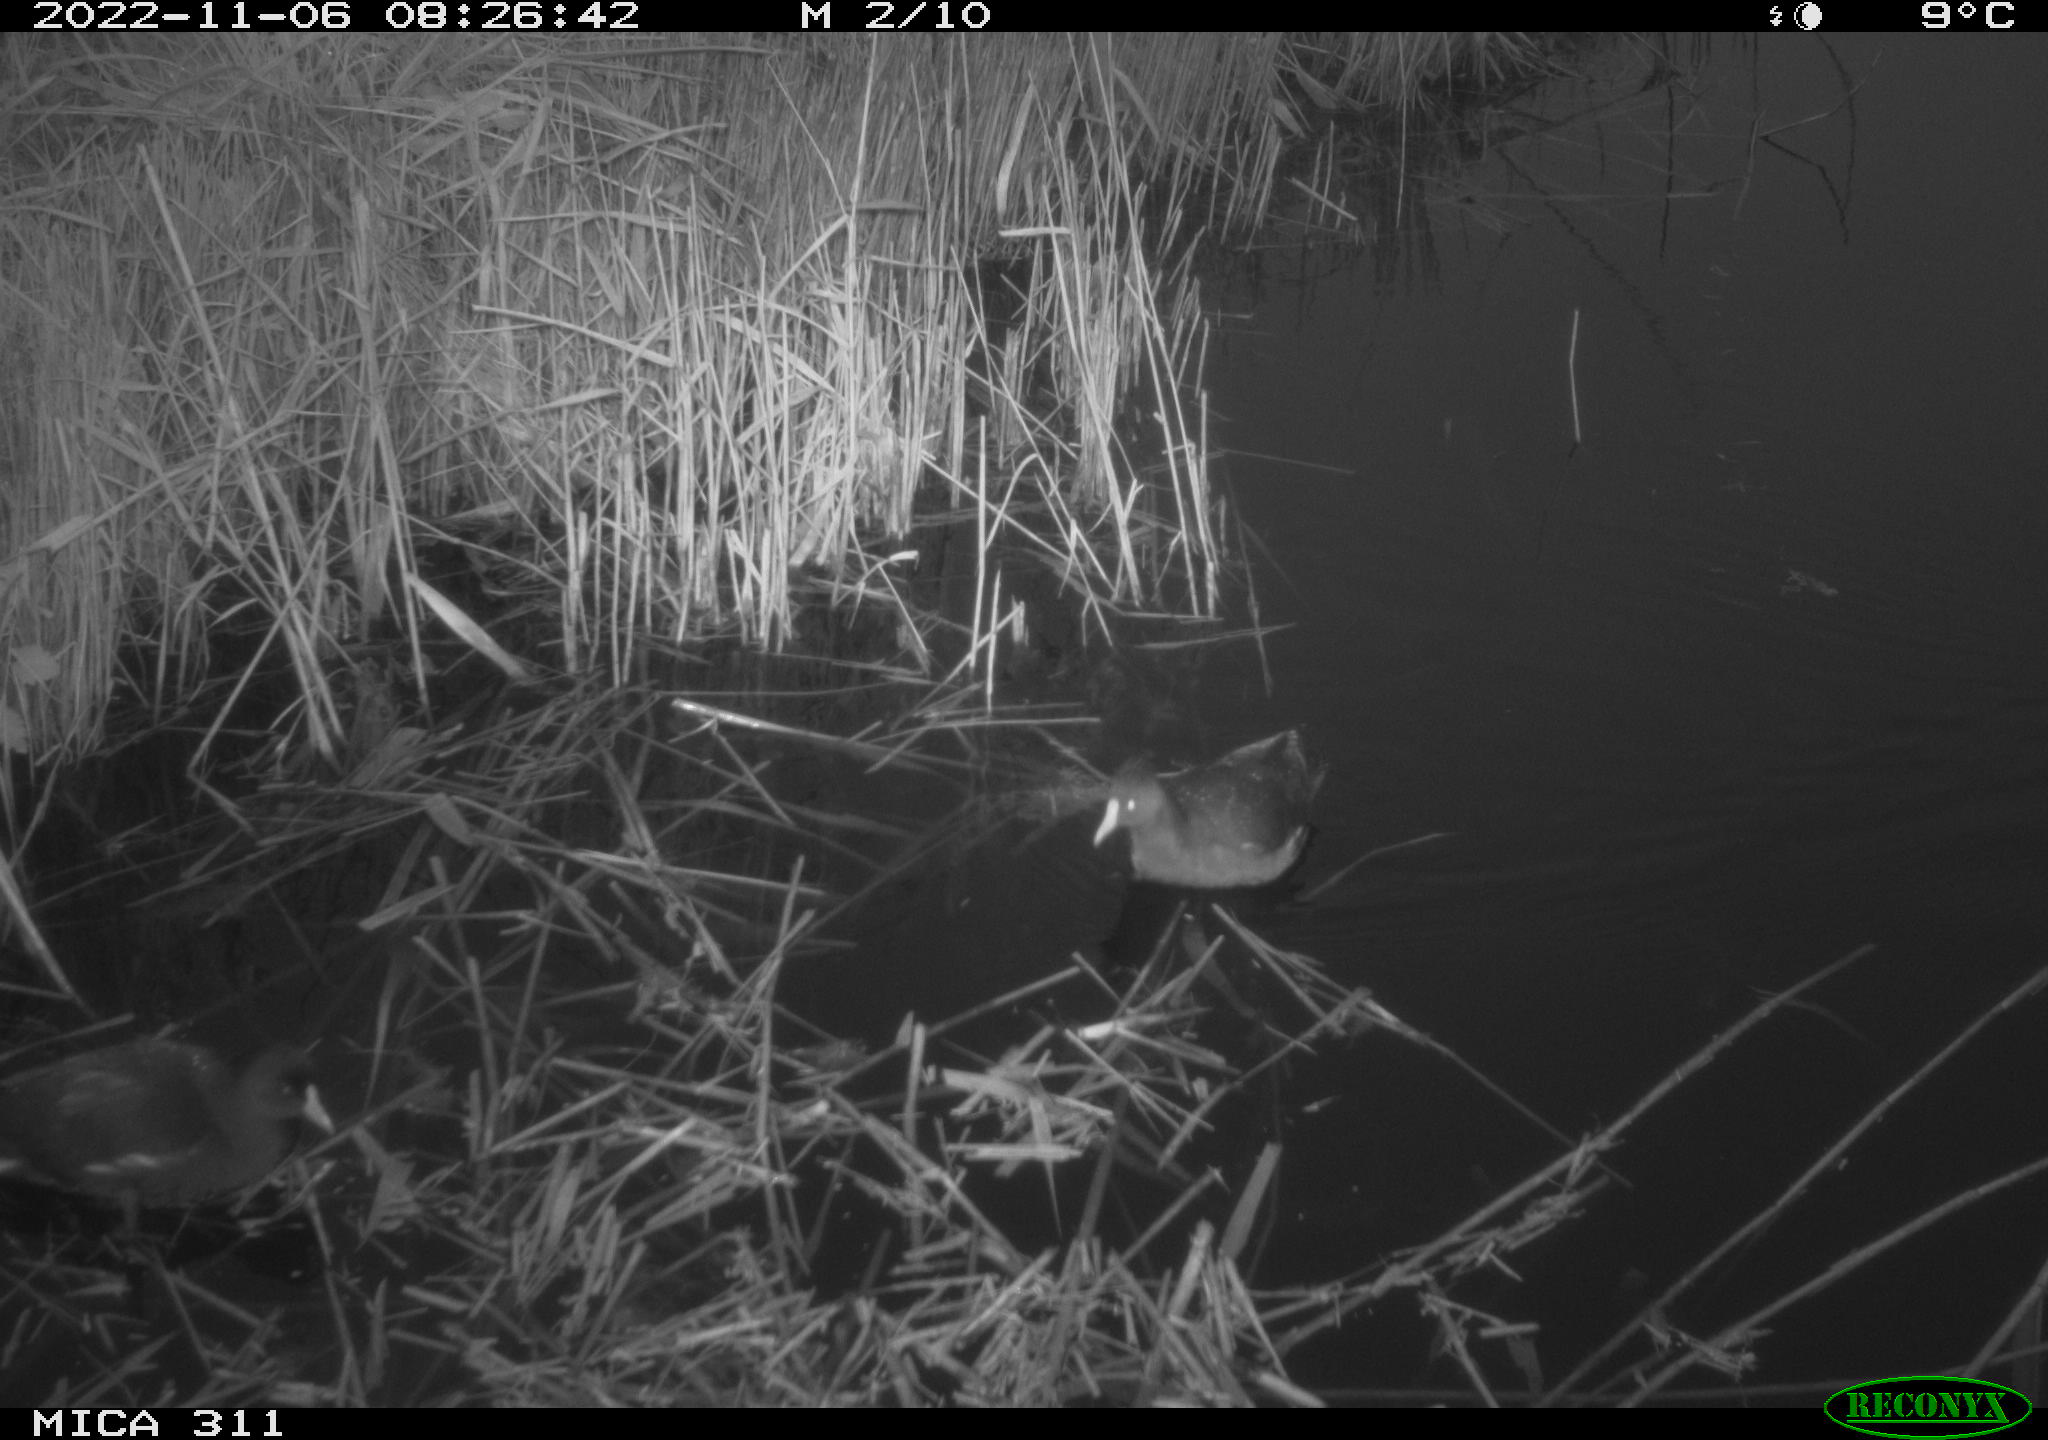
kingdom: Animalia
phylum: Chordata
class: Aves
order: Gruiformes
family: Rallidae
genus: Gallinula
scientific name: Gallinula chloropus
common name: Common moorhen
